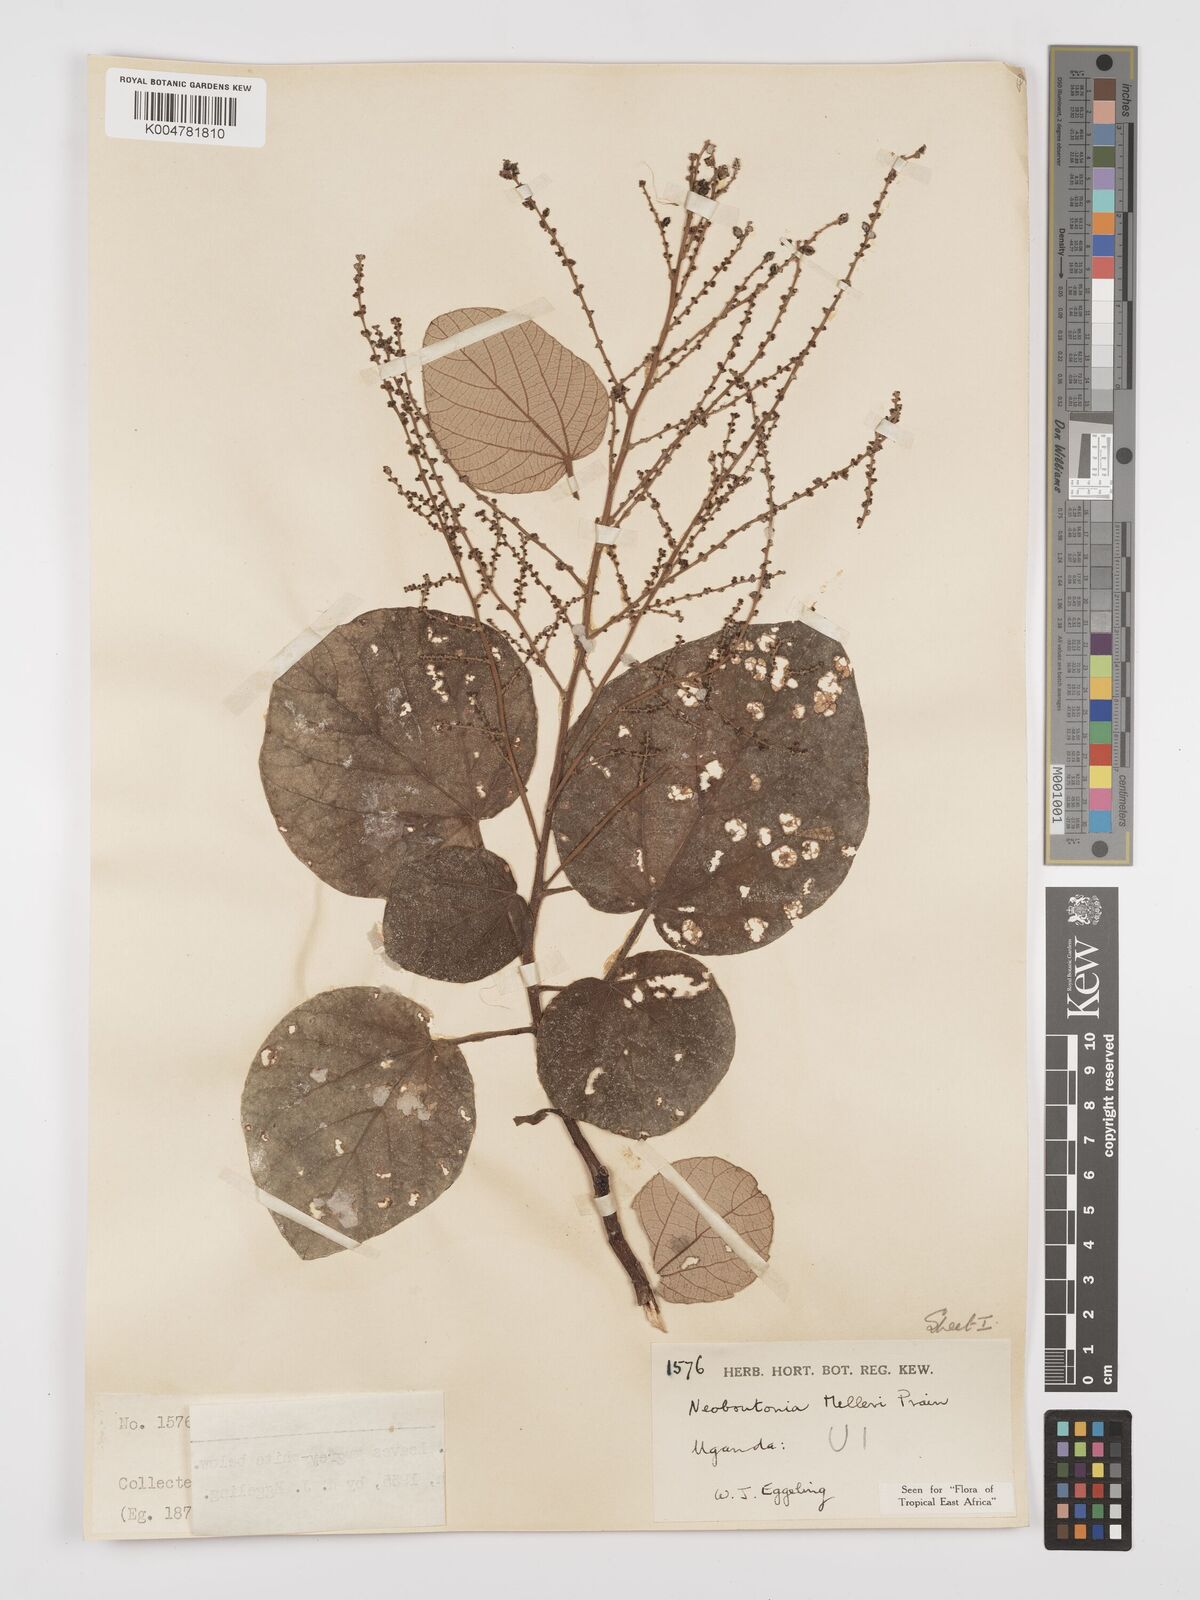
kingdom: Plantae
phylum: Tracheophyta
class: Magnoliopsida
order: Malpighiales
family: Euphorbiaceae
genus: Neoboutonia
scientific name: Neoboutonia melleri
